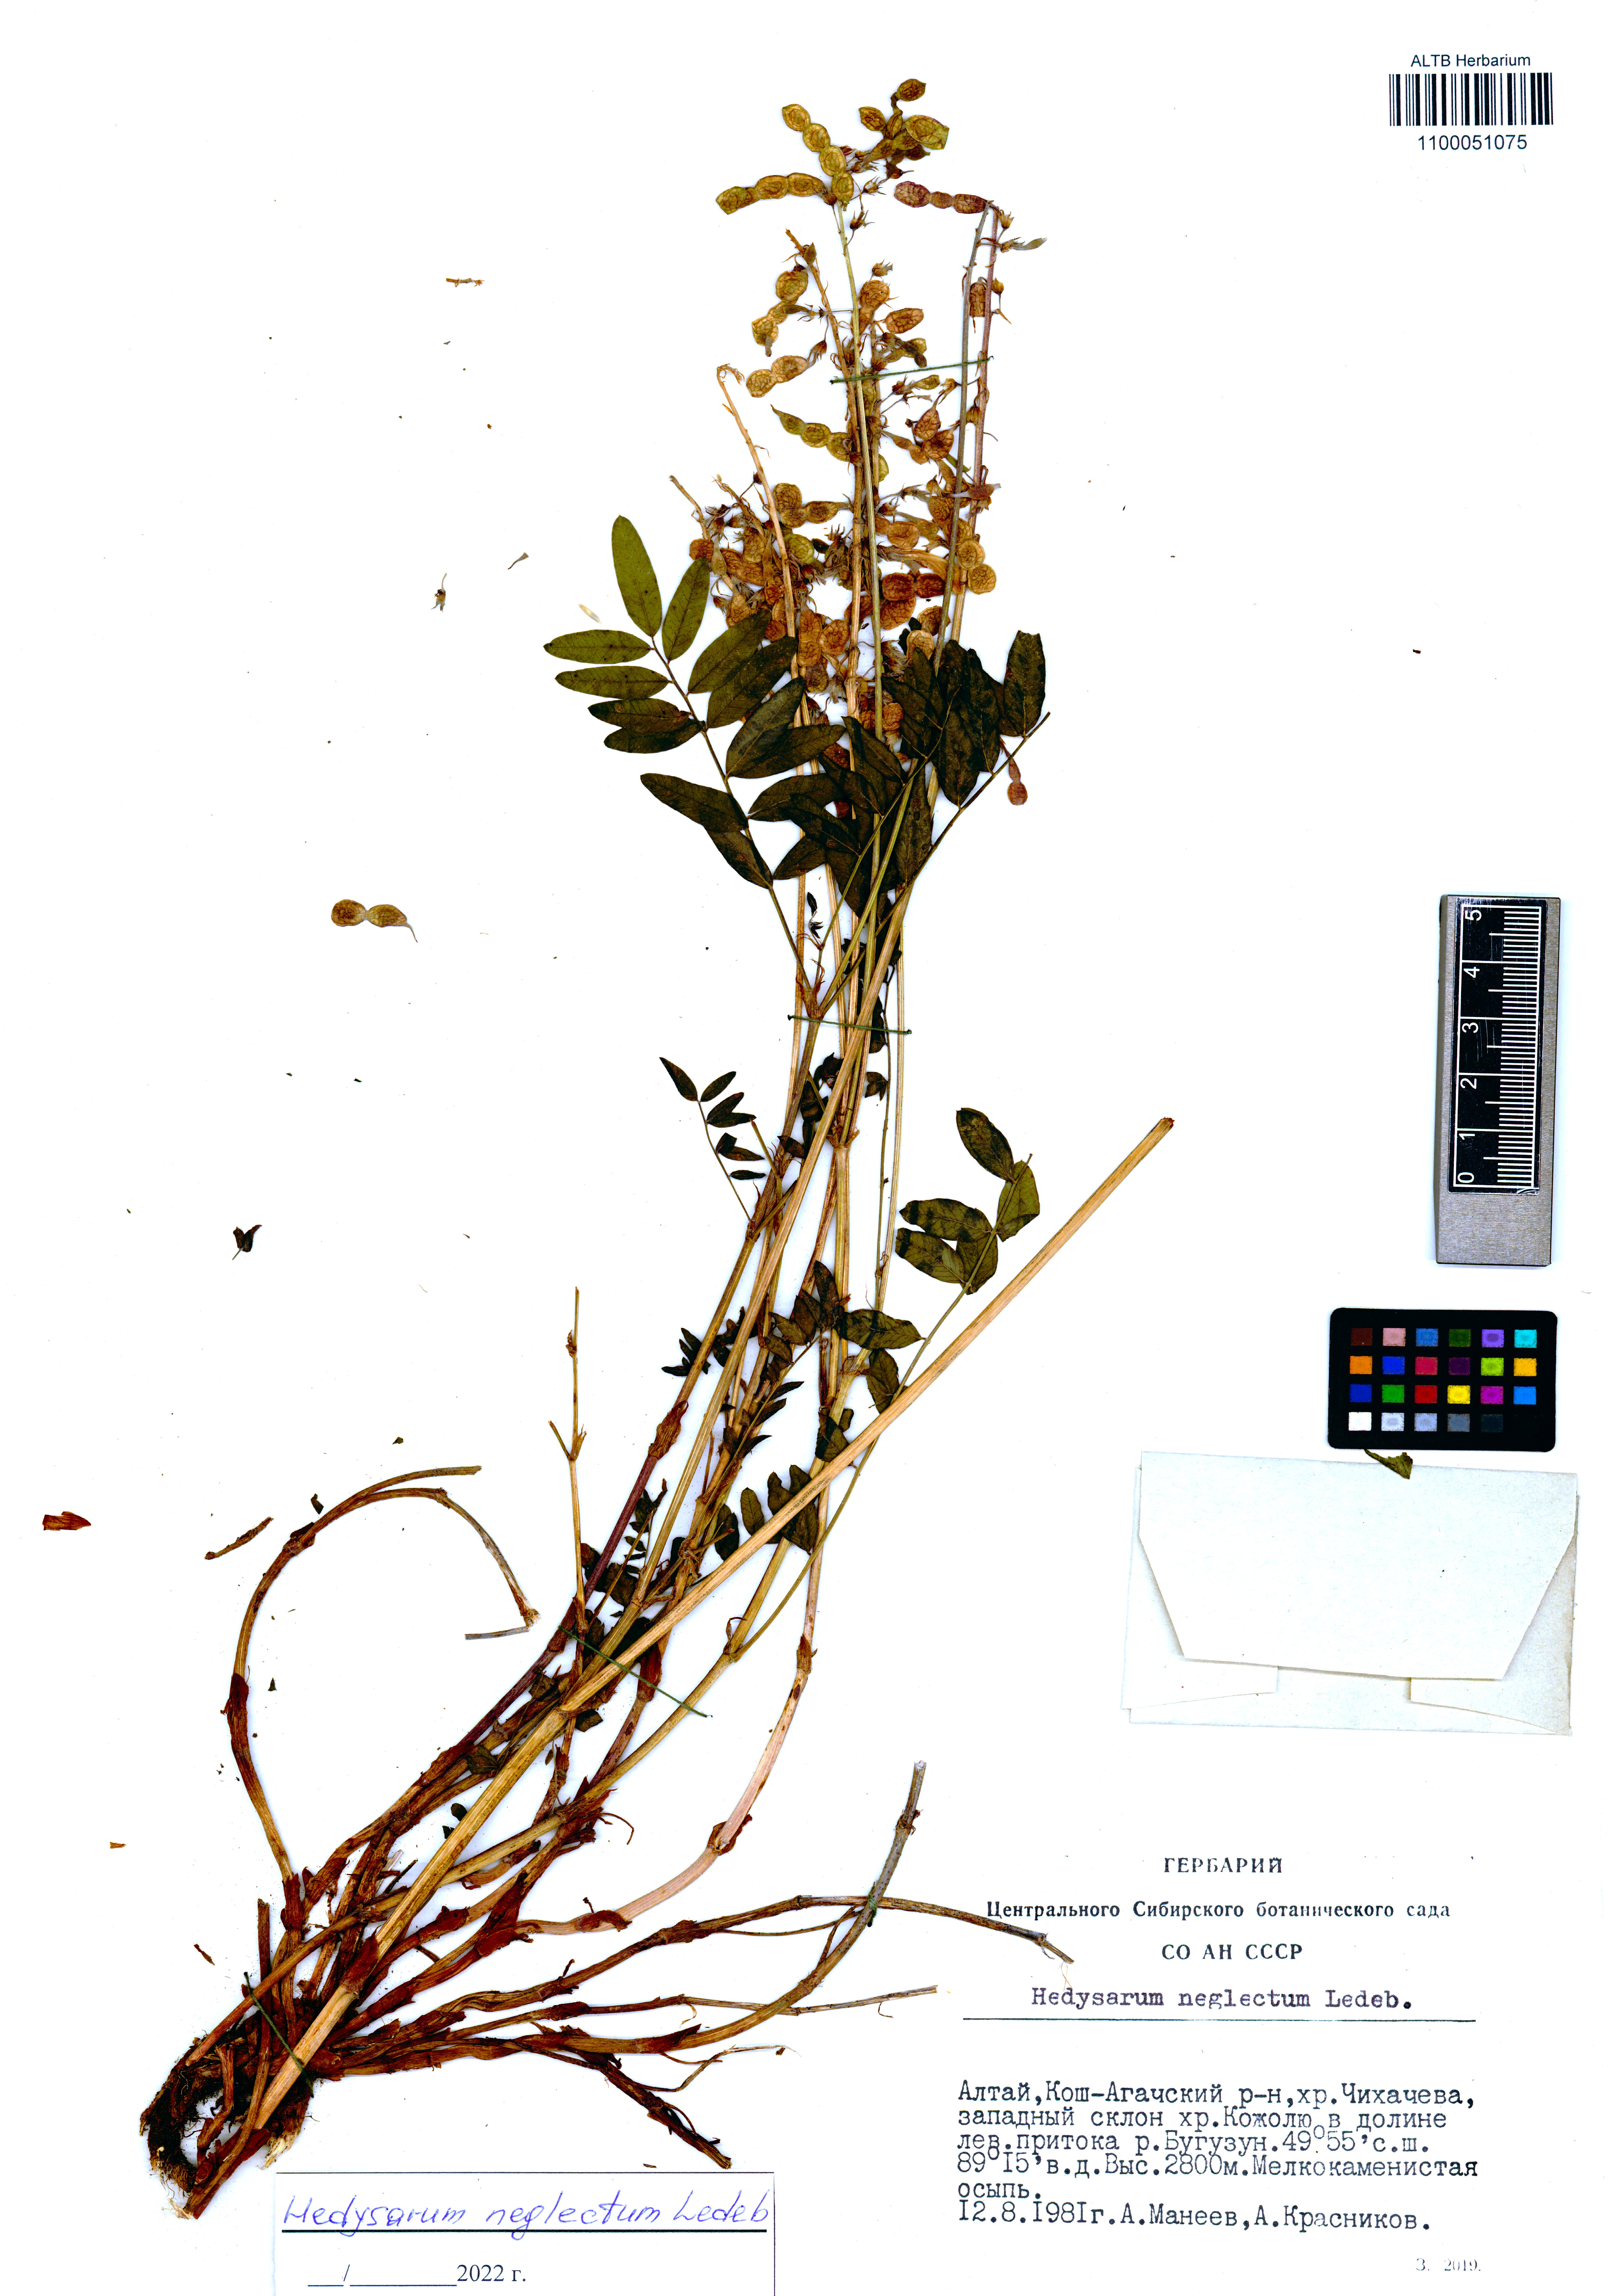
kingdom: Plantae
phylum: Tracheophyta
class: Magnoliopsida
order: Fabales
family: Fabaceae
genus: Hedysarum
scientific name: Hedysarum neglectum
